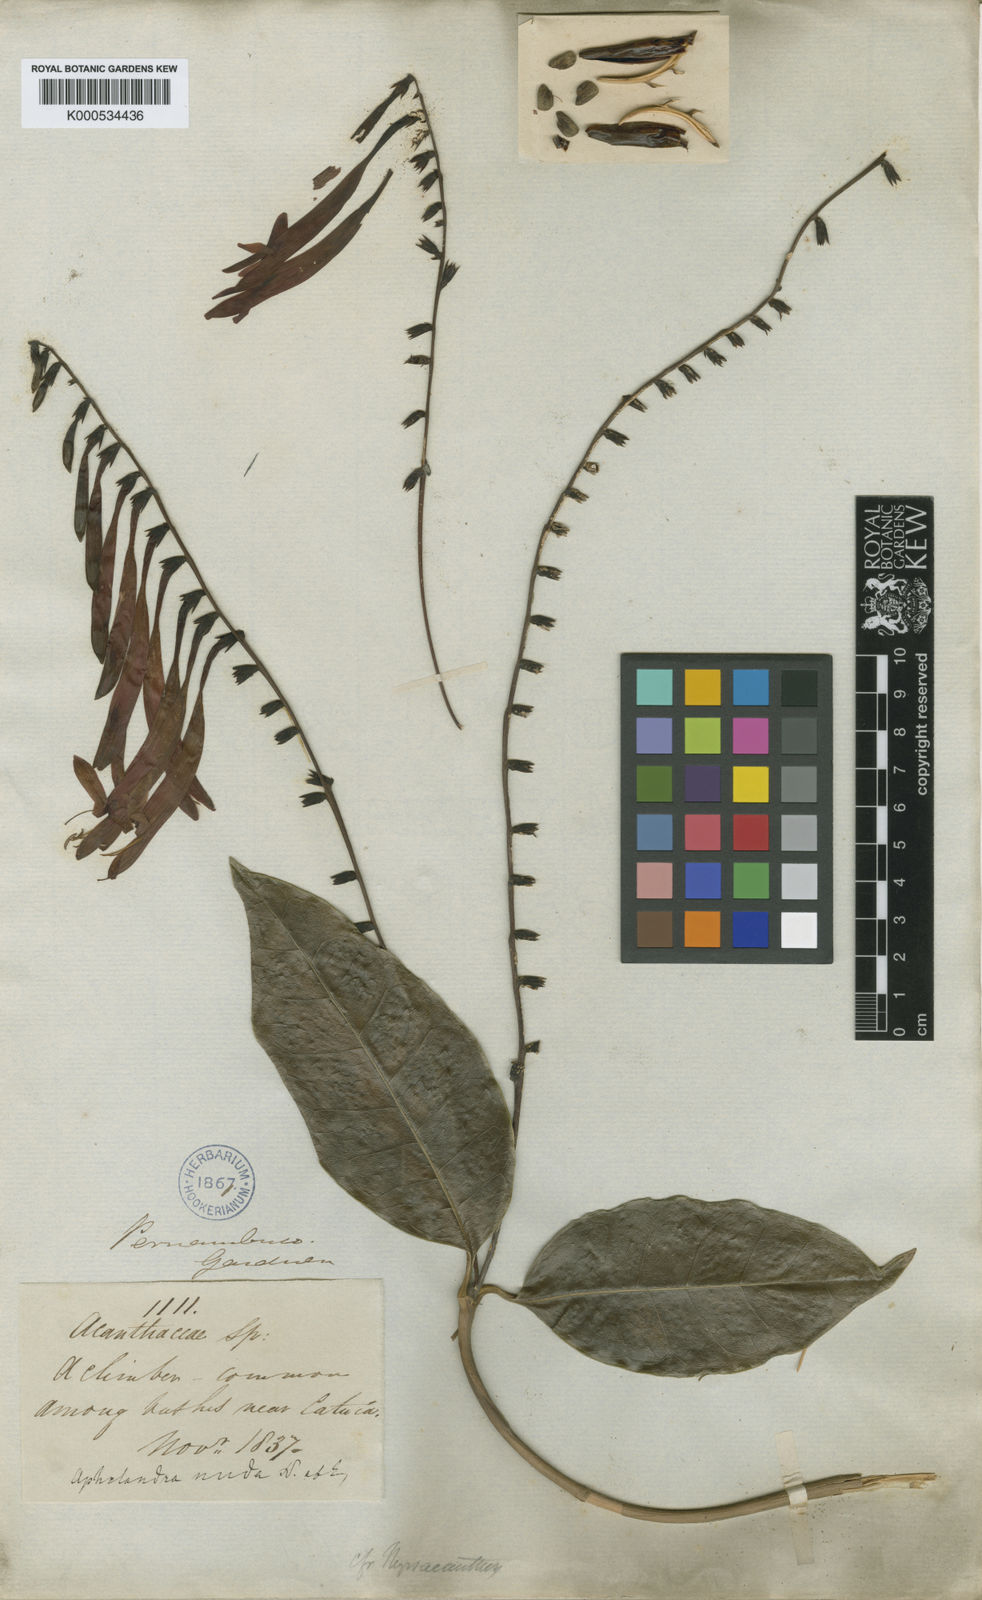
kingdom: Plantae
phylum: Tracheophyta
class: Magnoliopsida
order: Lamiales
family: Acanthaceae
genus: Aphelandra
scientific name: Aphelandra nuda
